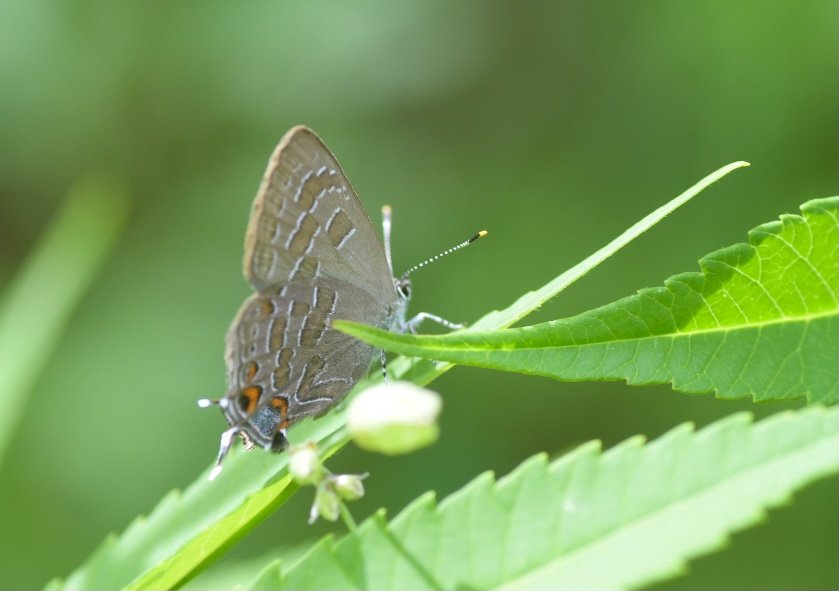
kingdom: Animalia
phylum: Arthropoda
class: Insecta
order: Lepidoptera
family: Lycaenidae
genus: Satyrium
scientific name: Satyrium liparops
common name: Striped Hairstreak
